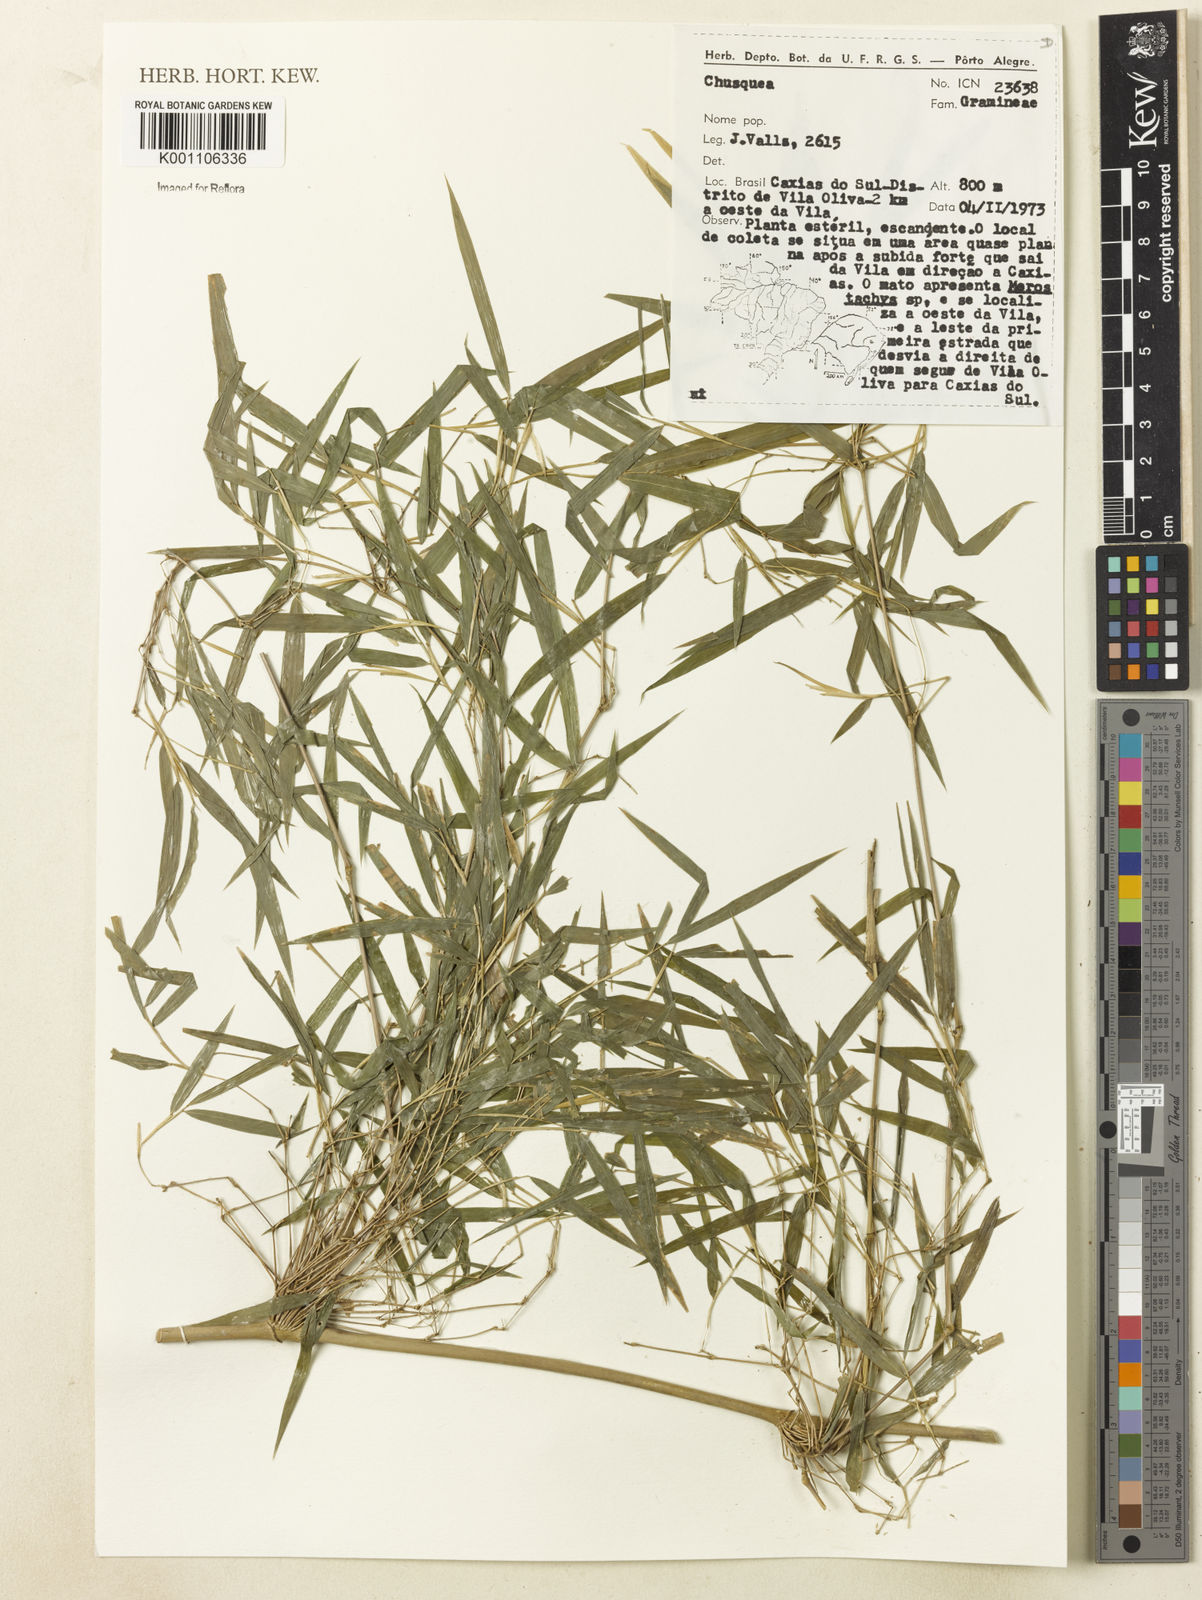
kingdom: Plantae
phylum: Tracheophyta
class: Liliopsida
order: Poales
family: Poaceae
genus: Chusquea
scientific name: Chusquea
